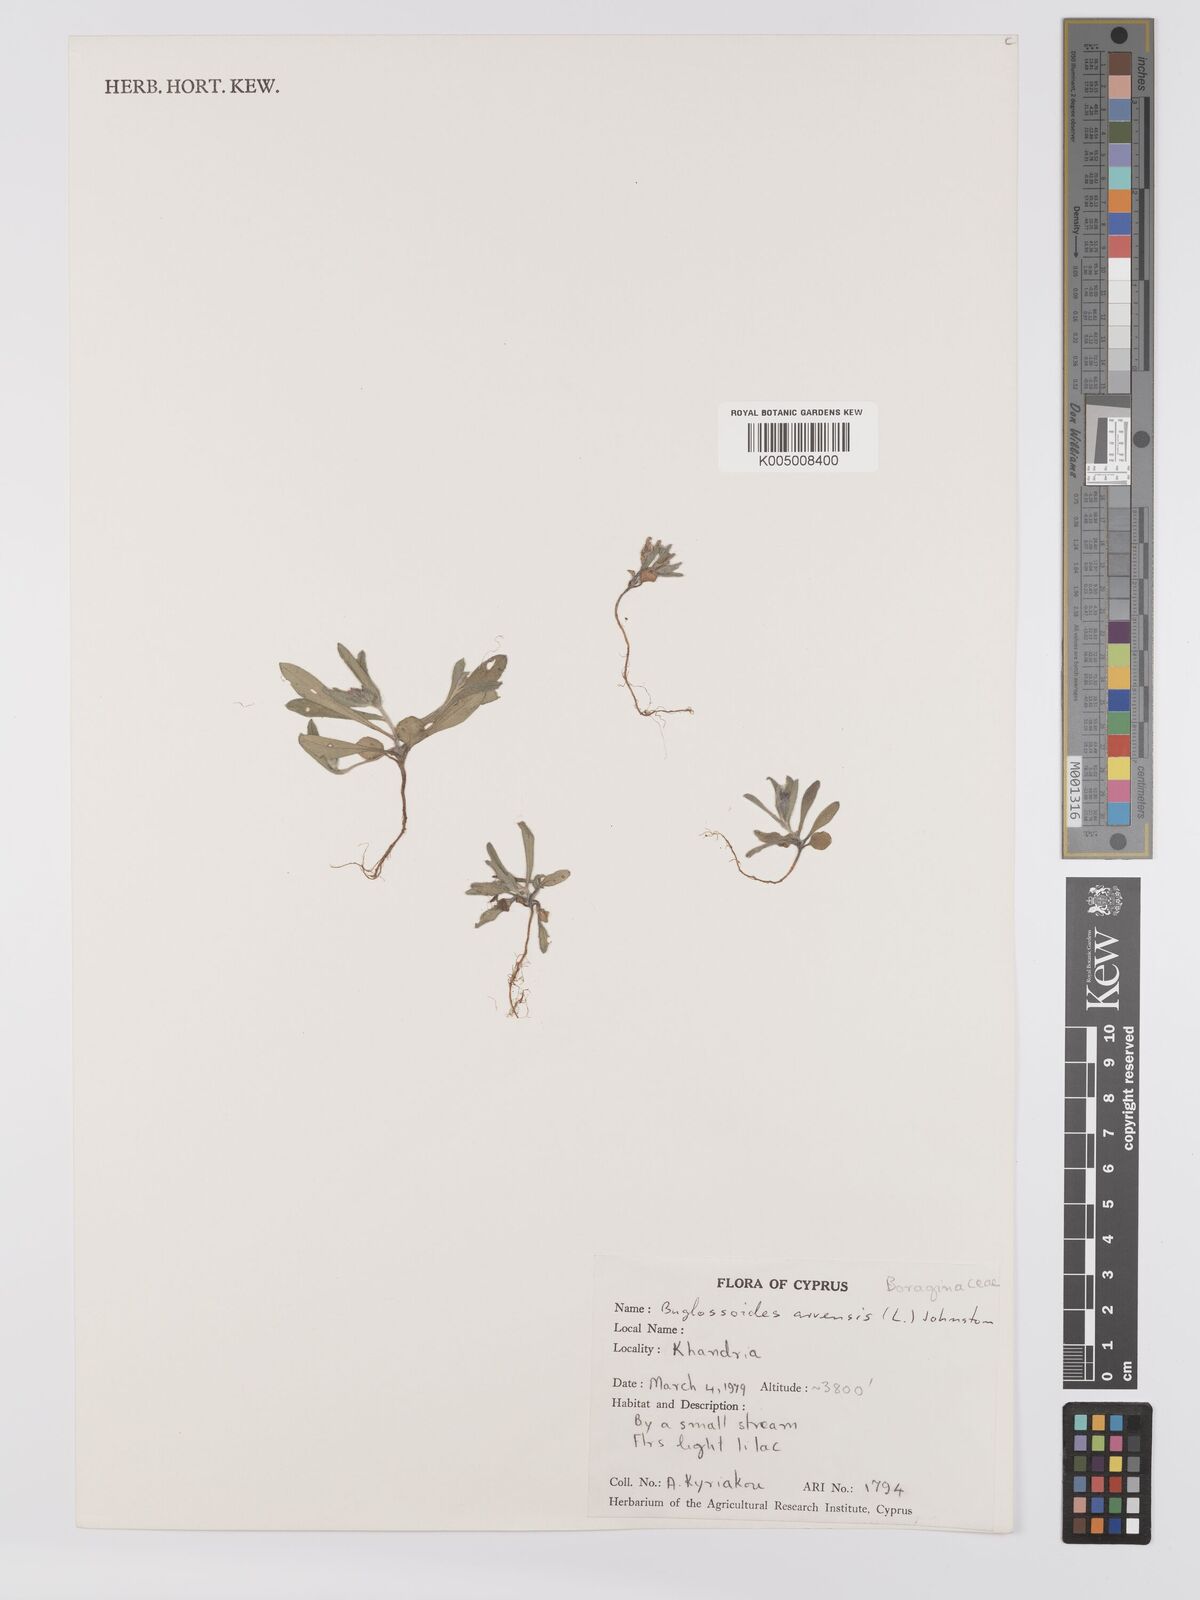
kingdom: Plantae
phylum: Tracheophyta
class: Magnoliopsida
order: Boraginales
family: Boraginaceae
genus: Buglossoides
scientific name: Buglossoides arvensis
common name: Corn gromwell
